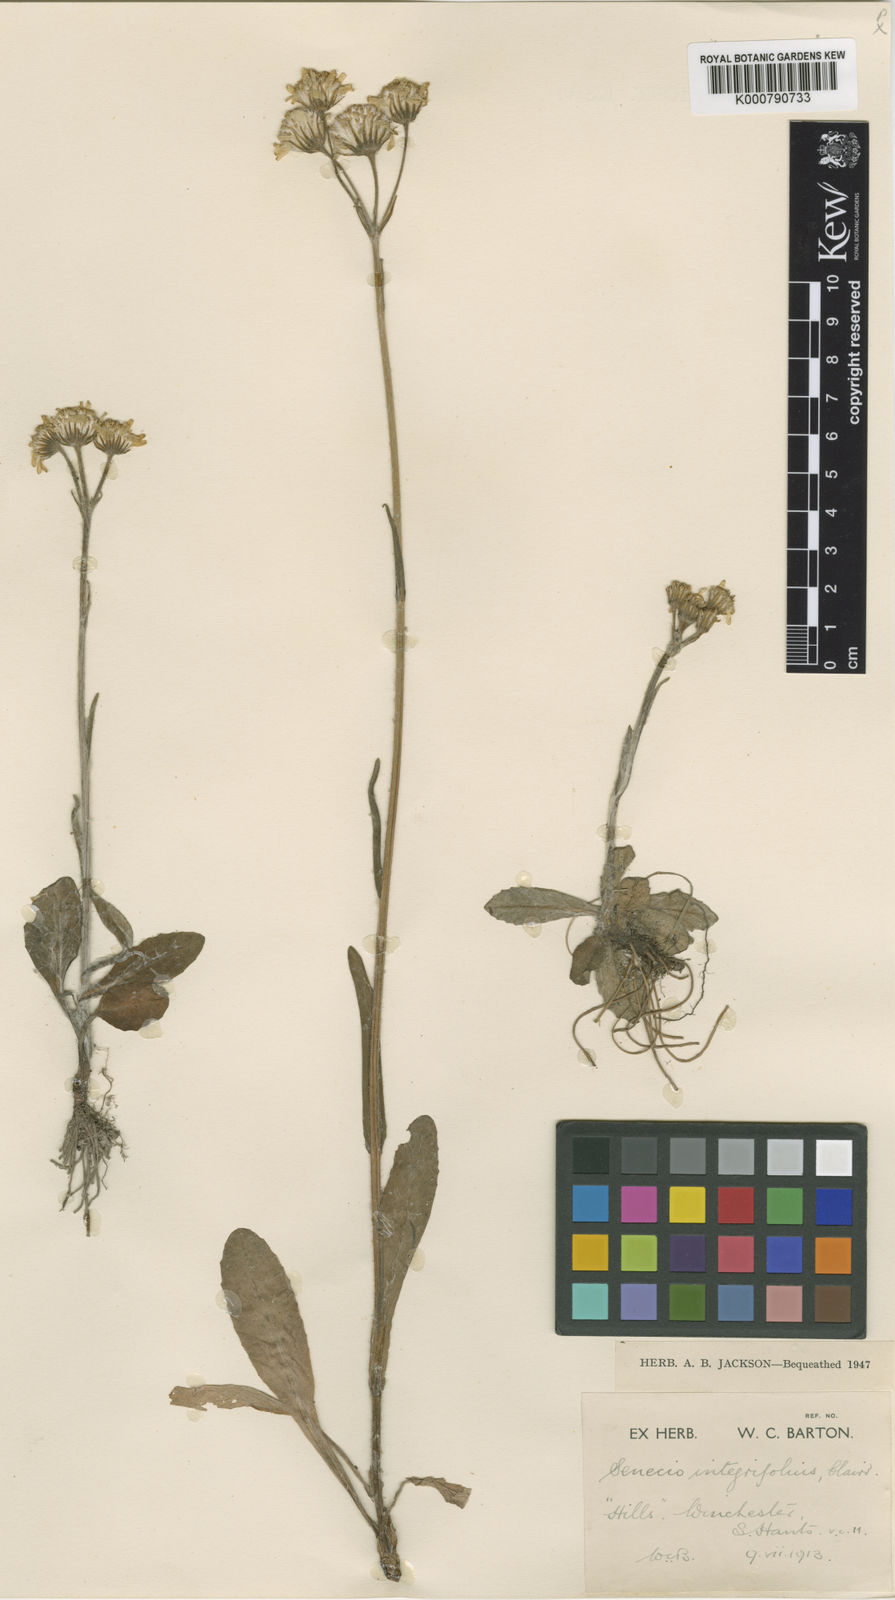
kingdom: Plantae
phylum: Tracheophyta
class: Magnoliopsida
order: Asterales
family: Asteraceae
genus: Tephroseris
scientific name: Tephroseris integrifolia
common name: Field fleawort
